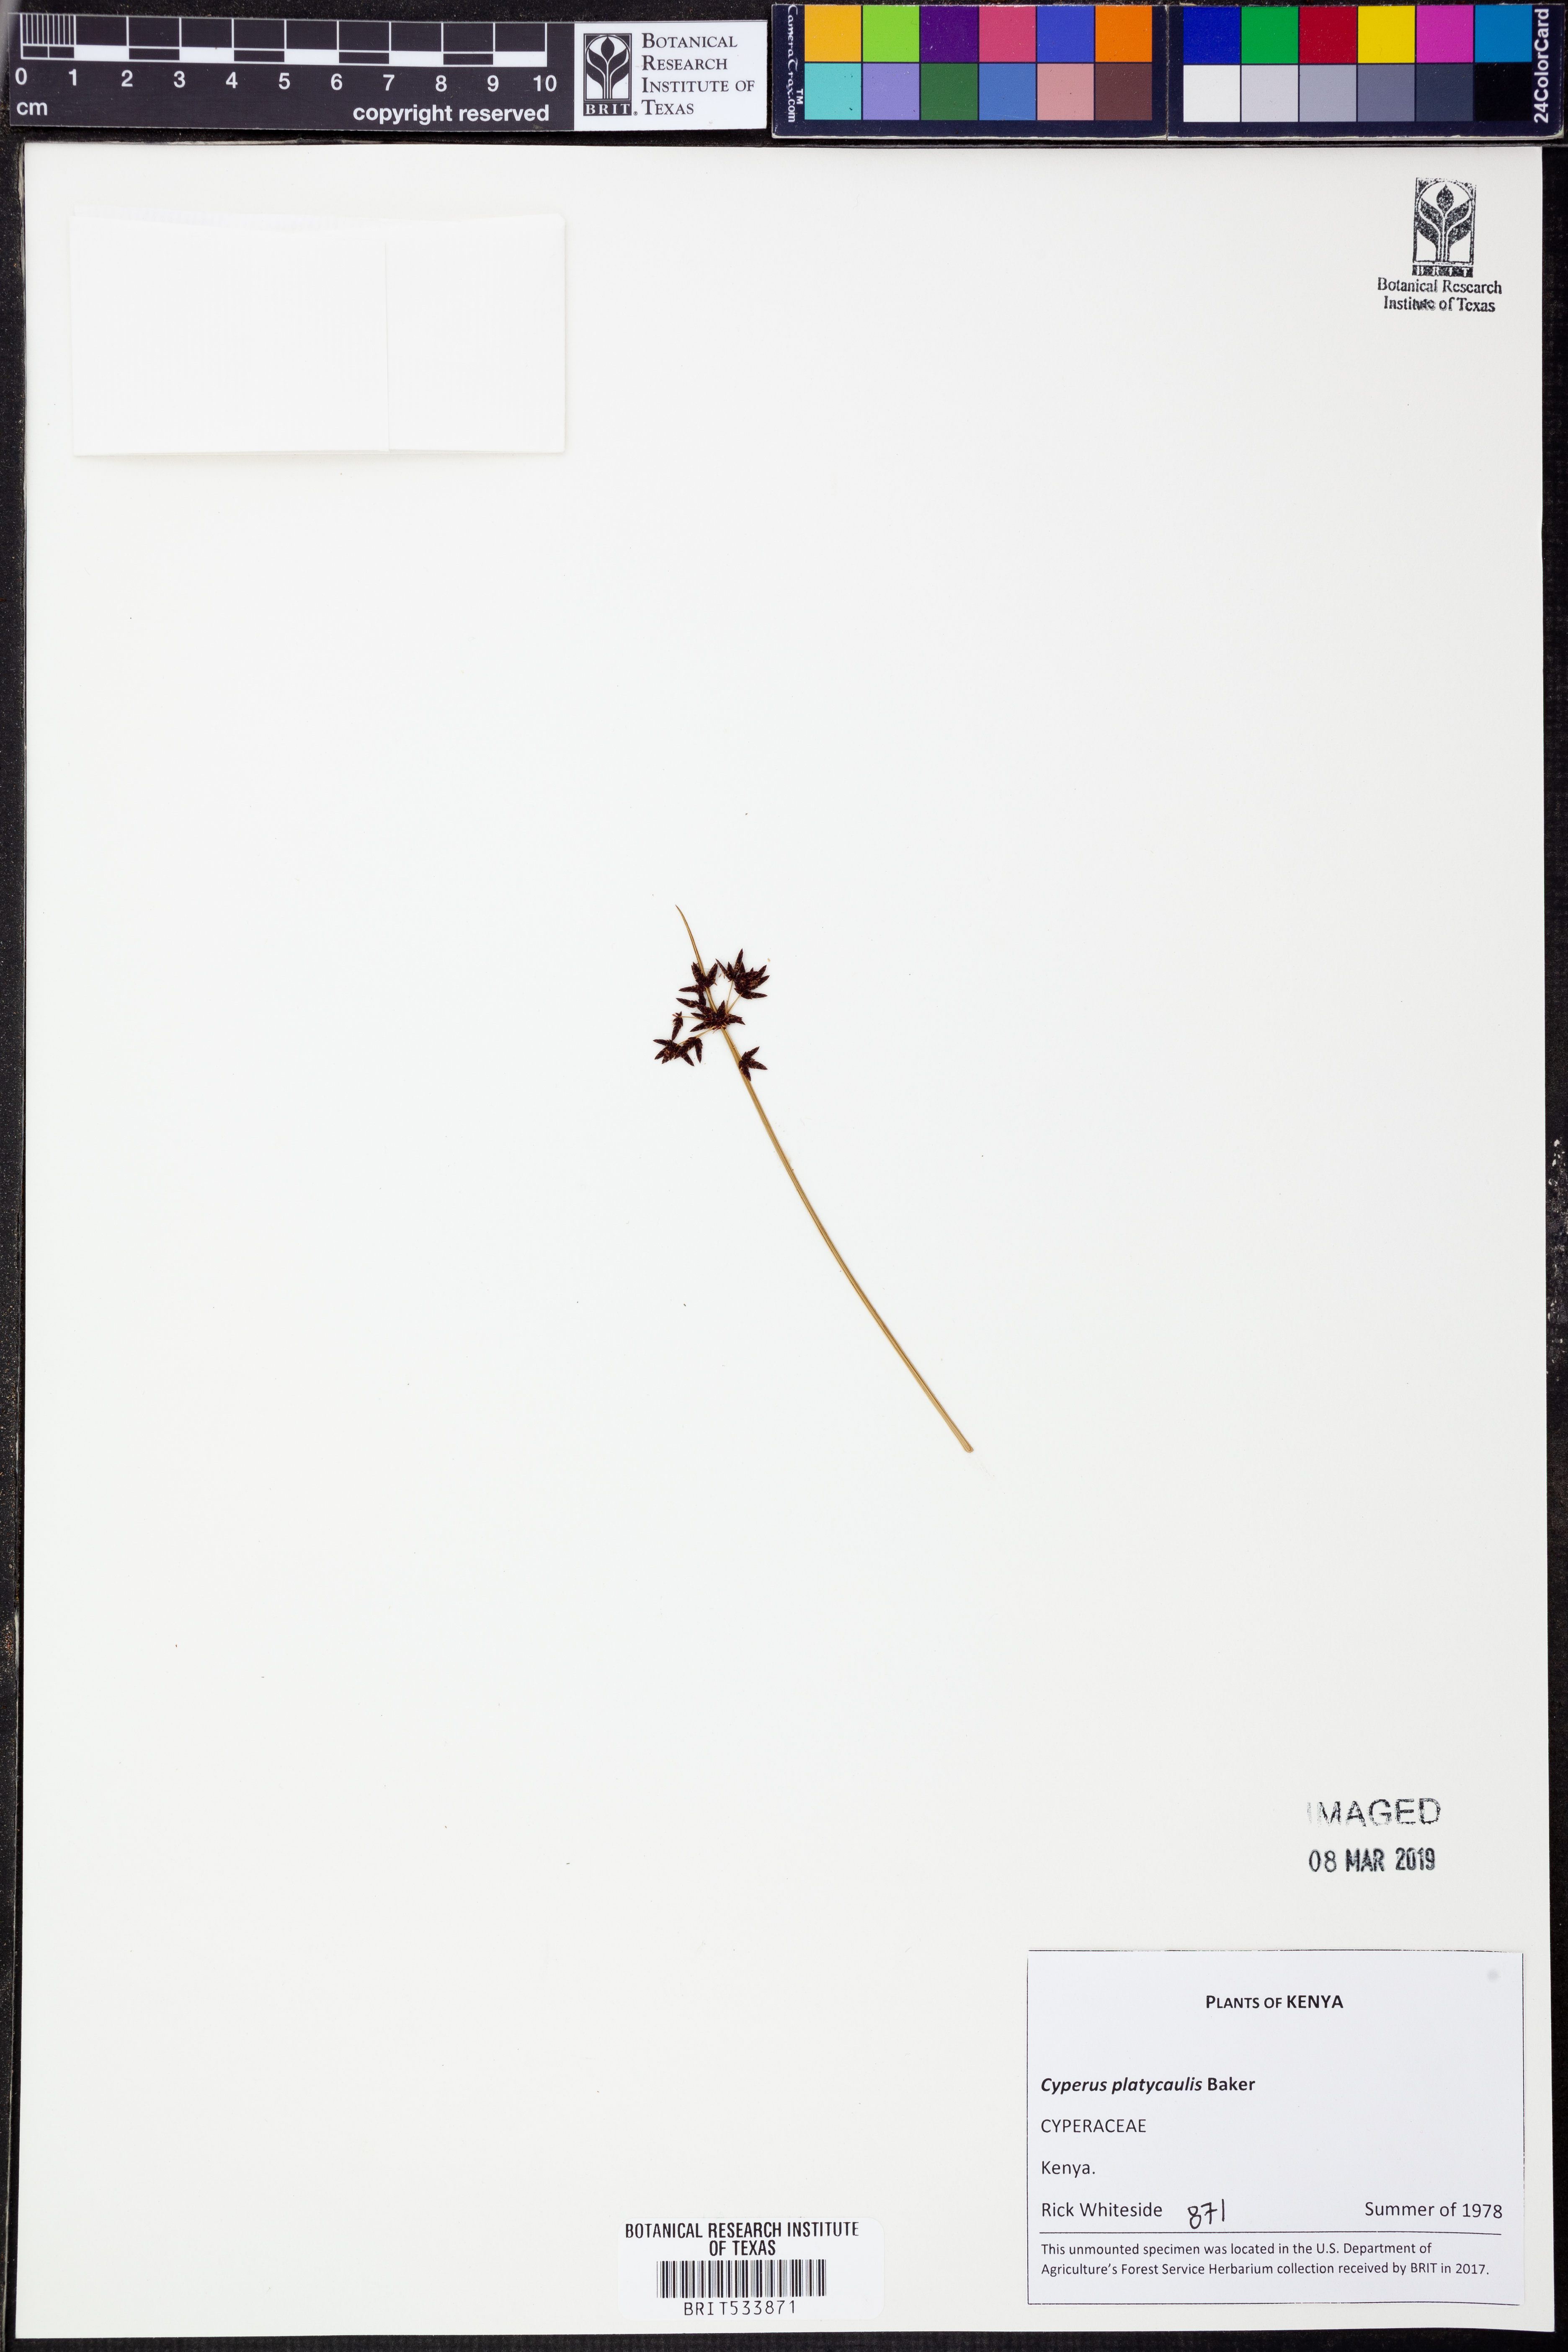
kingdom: Plantae
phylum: Tracheophyta
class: Liliopsida
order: Poales
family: Cyperaceae
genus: Cyperus
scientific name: Cyperus platycaulis
